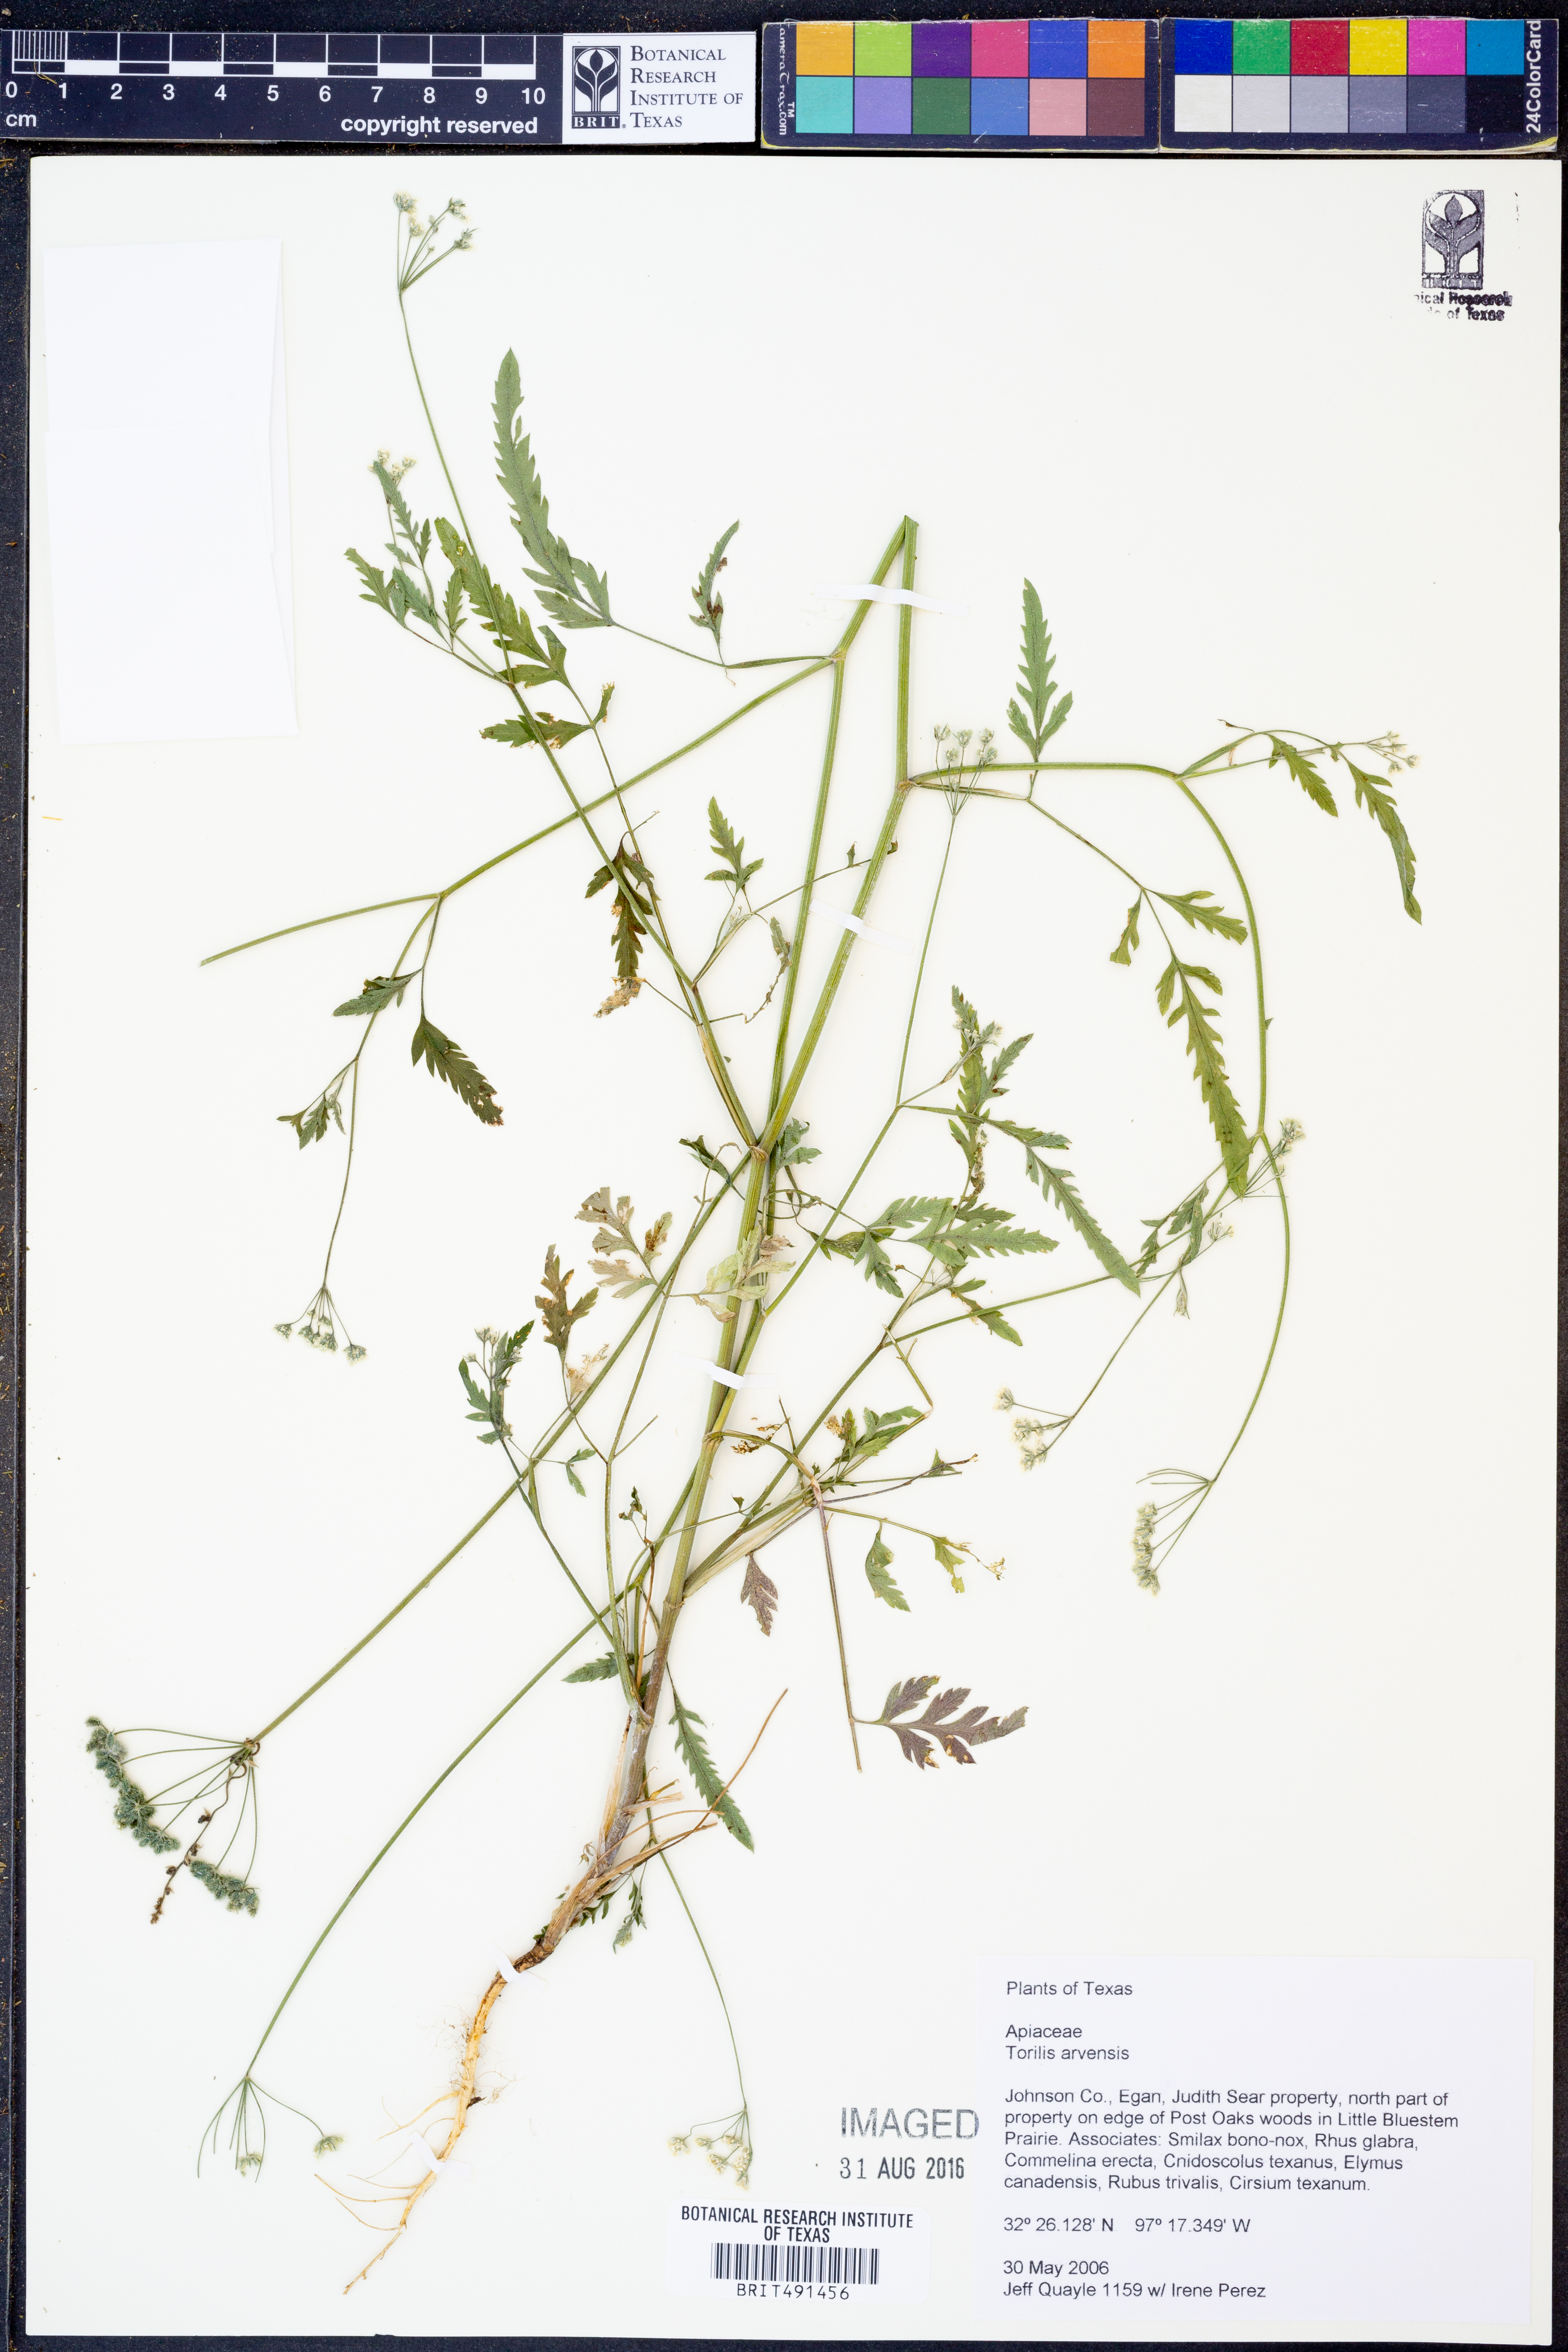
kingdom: Plantae
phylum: Tracheophyta
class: Magnoliopsida
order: Apiales
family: Apiaceae
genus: Torilis
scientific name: Torilis arvensis
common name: Spreading hedge-parsley
